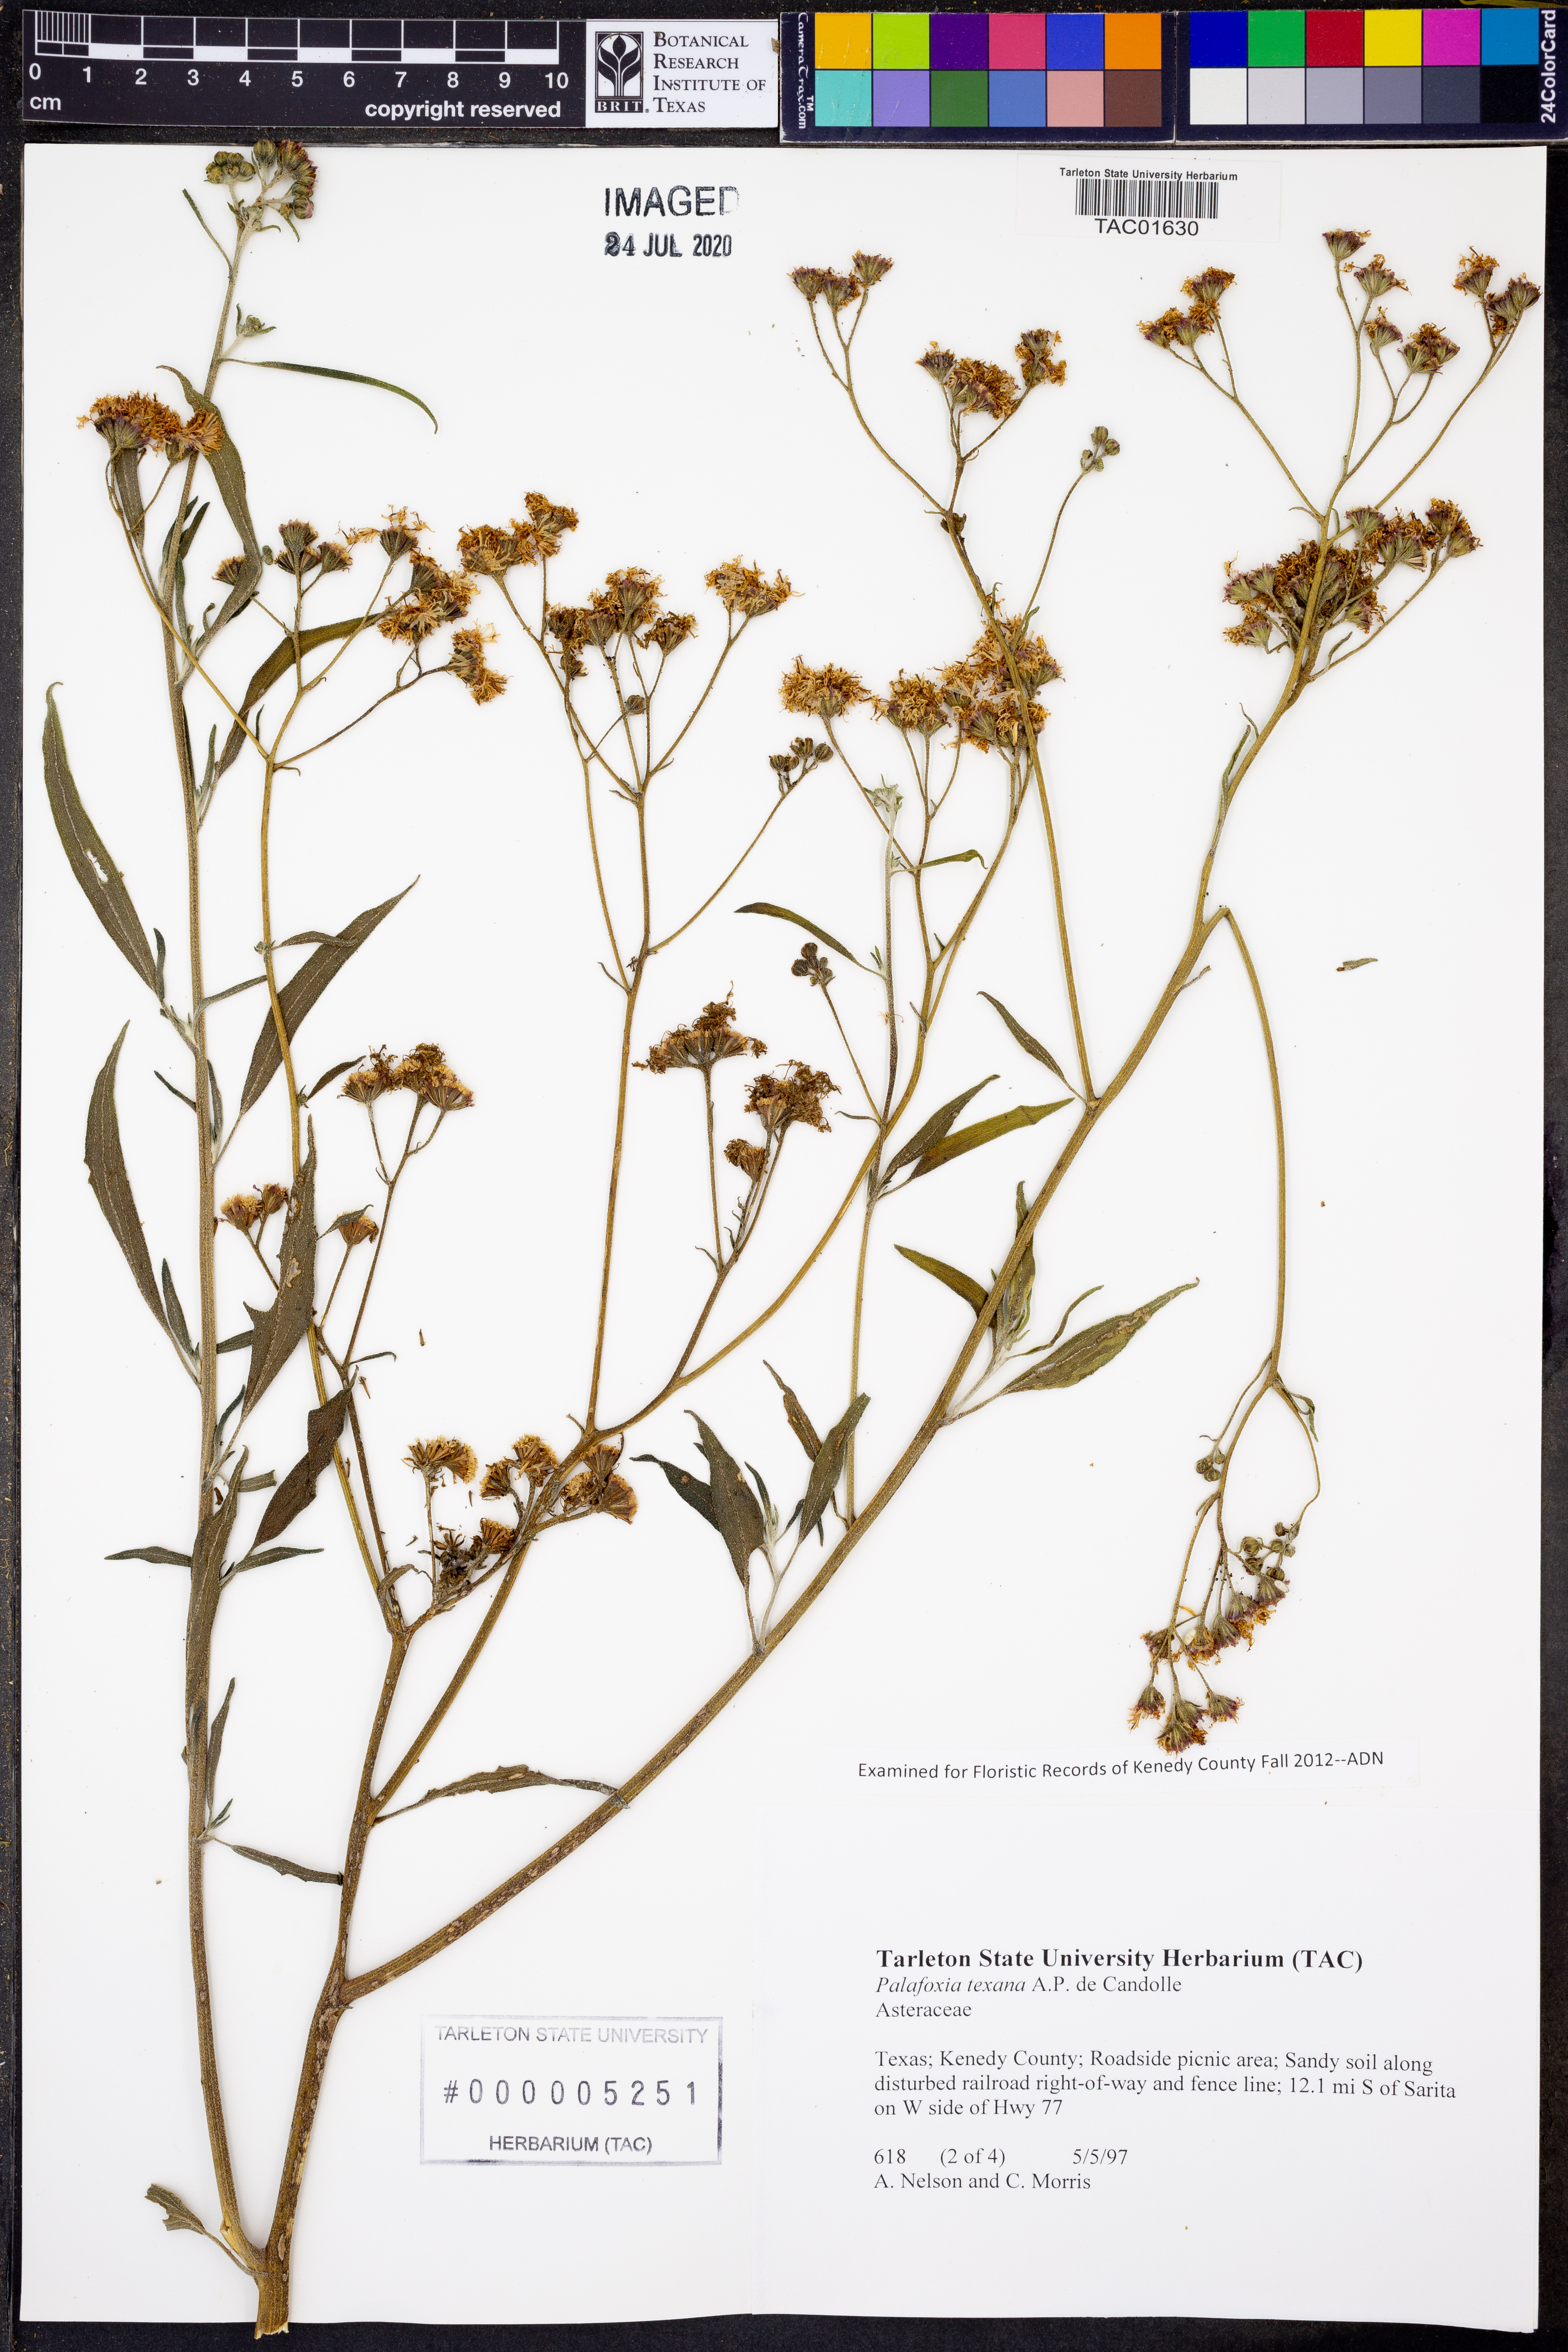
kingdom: Plantae
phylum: Tracheophyta
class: Magnoliopsida
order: Asterales
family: Asteraceae
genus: Palafoxia
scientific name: Palafoxia texana
